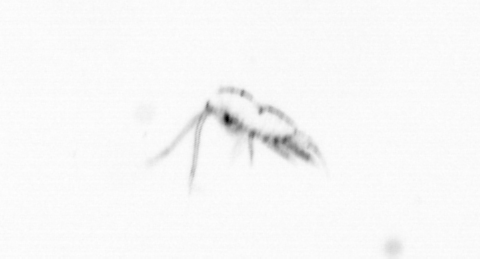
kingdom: Animalia
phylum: Arthropoda
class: Copepoda
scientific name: Copepoda
